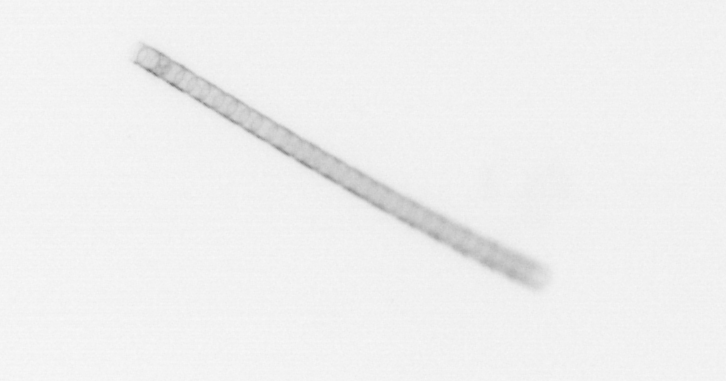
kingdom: Chromista
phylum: Ochrophyta
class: Bacillariophyceae
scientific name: Bacillariophyceae
